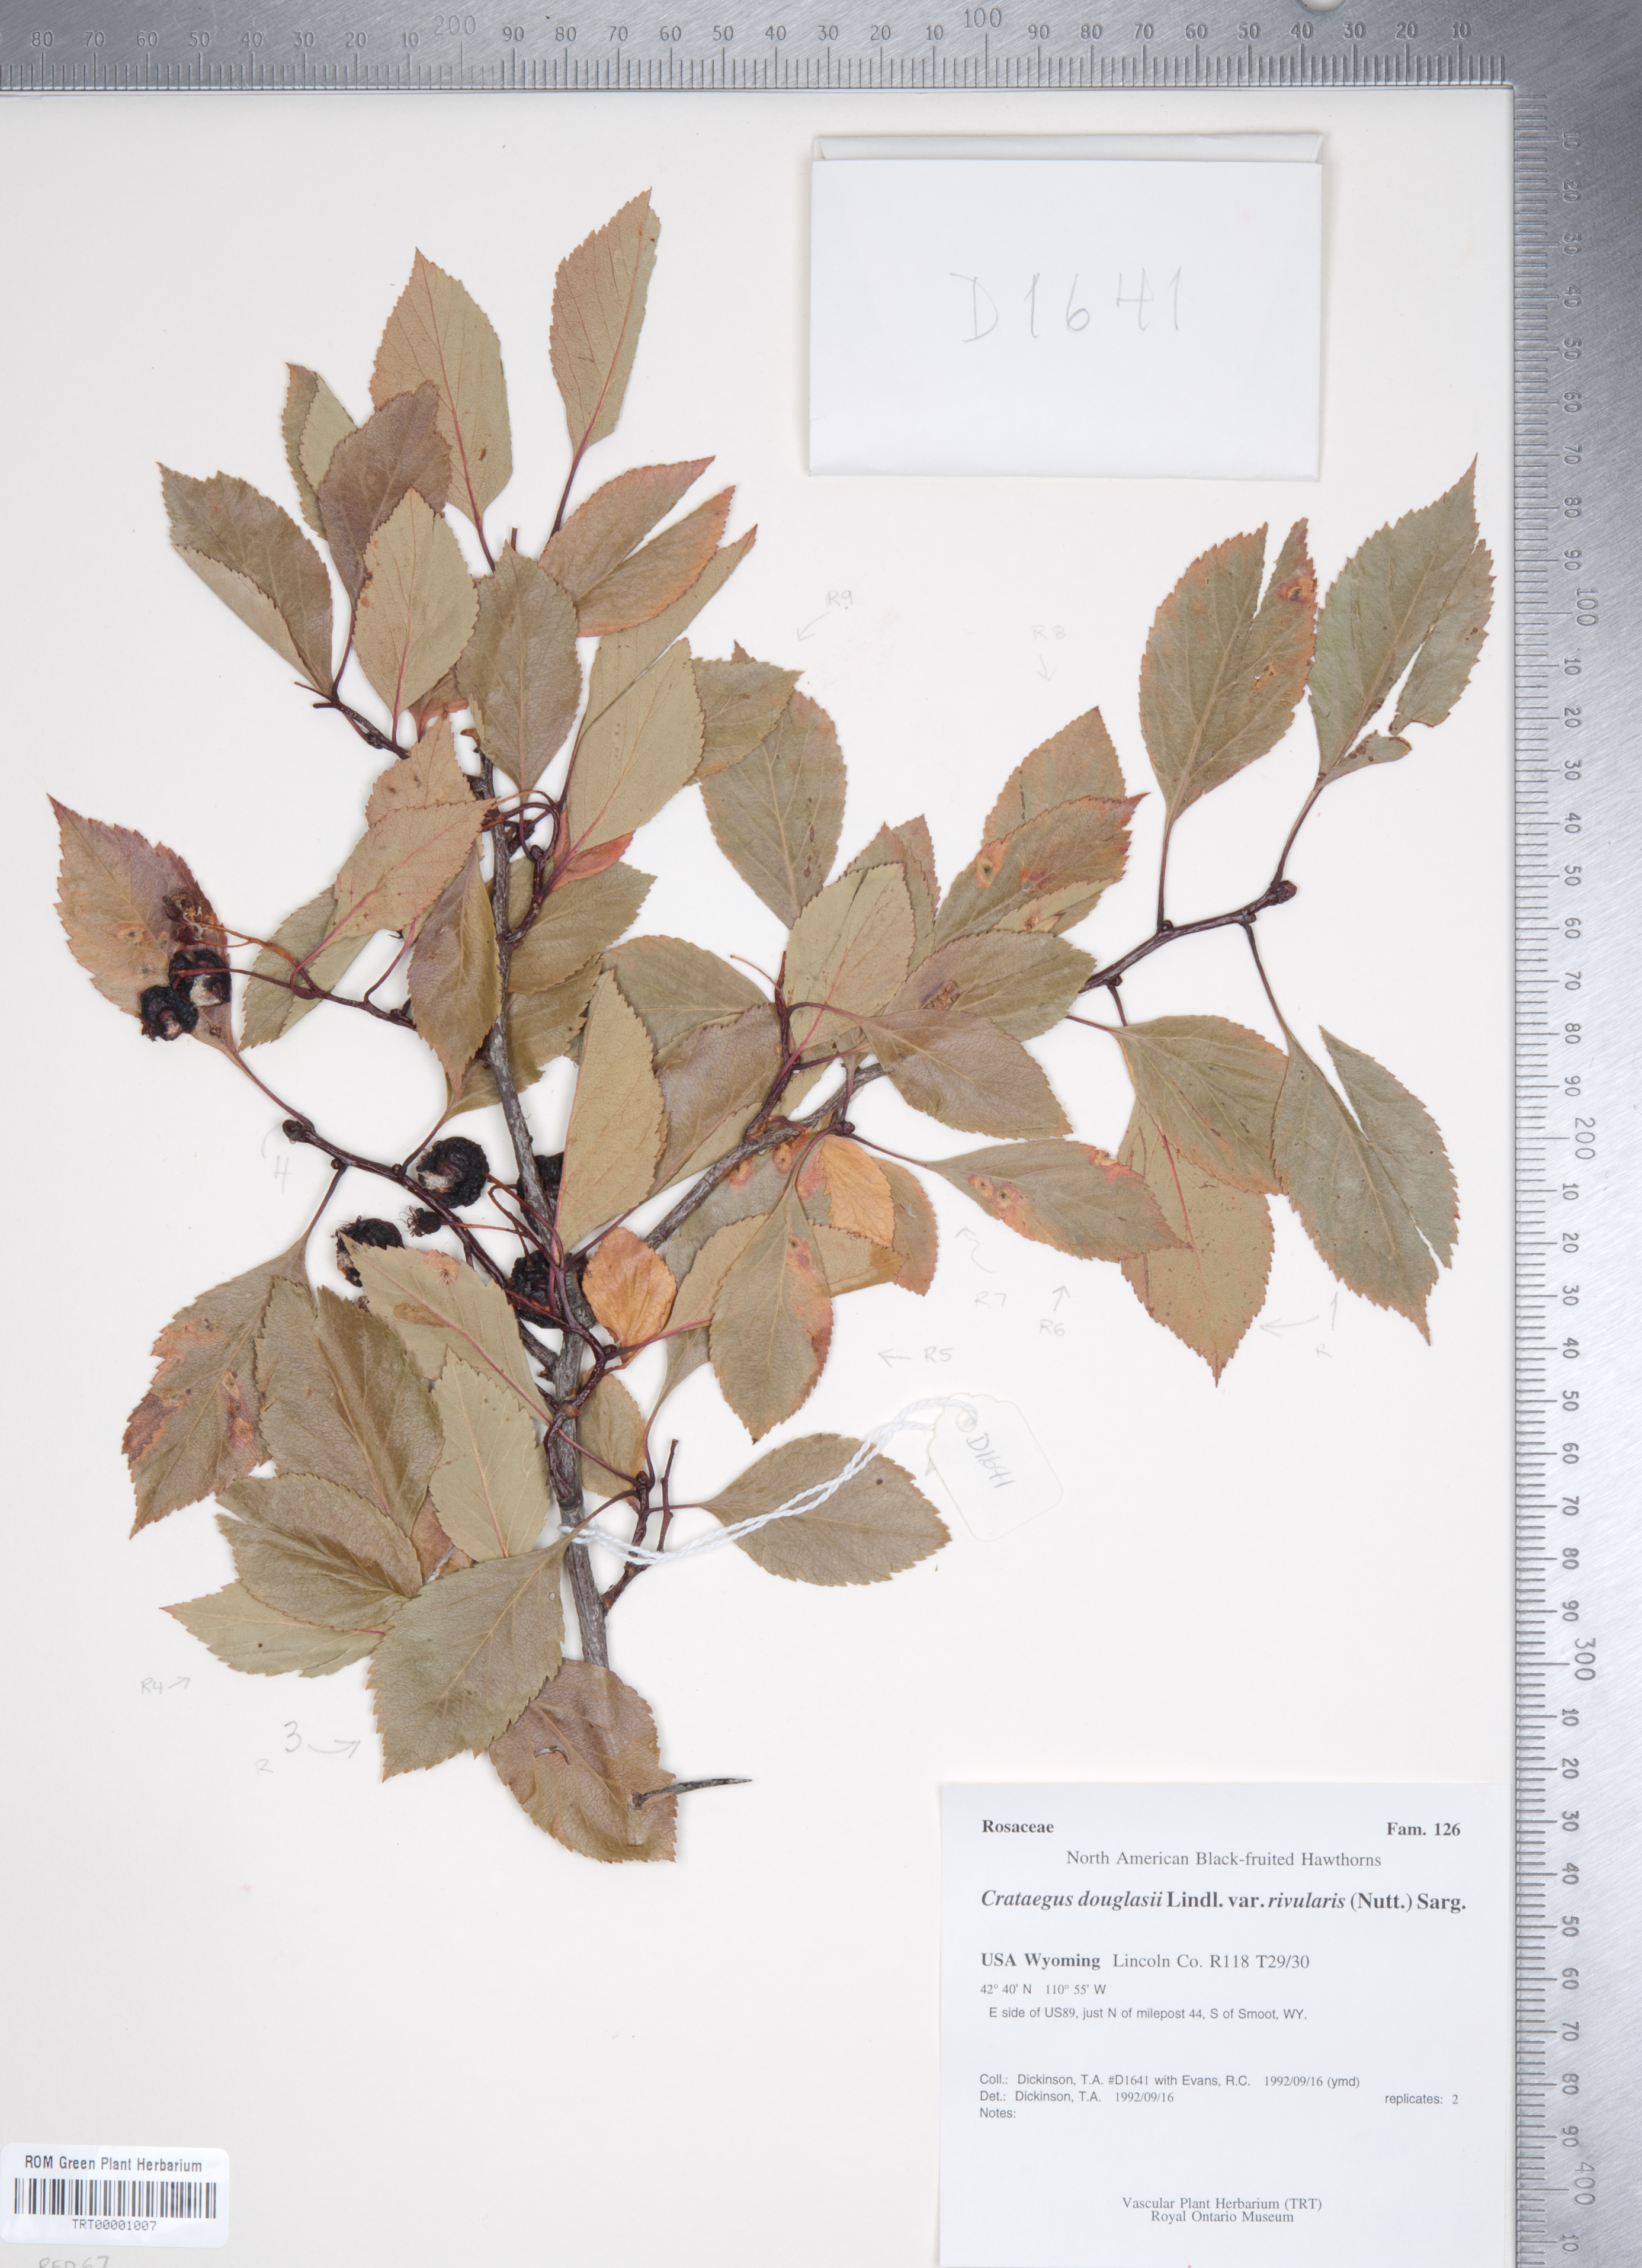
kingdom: Plantae
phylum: Tracheophyta
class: Magnoliopsida
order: Rosales
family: Rosaceae
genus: Crataegus
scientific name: Crataegus rivularis
